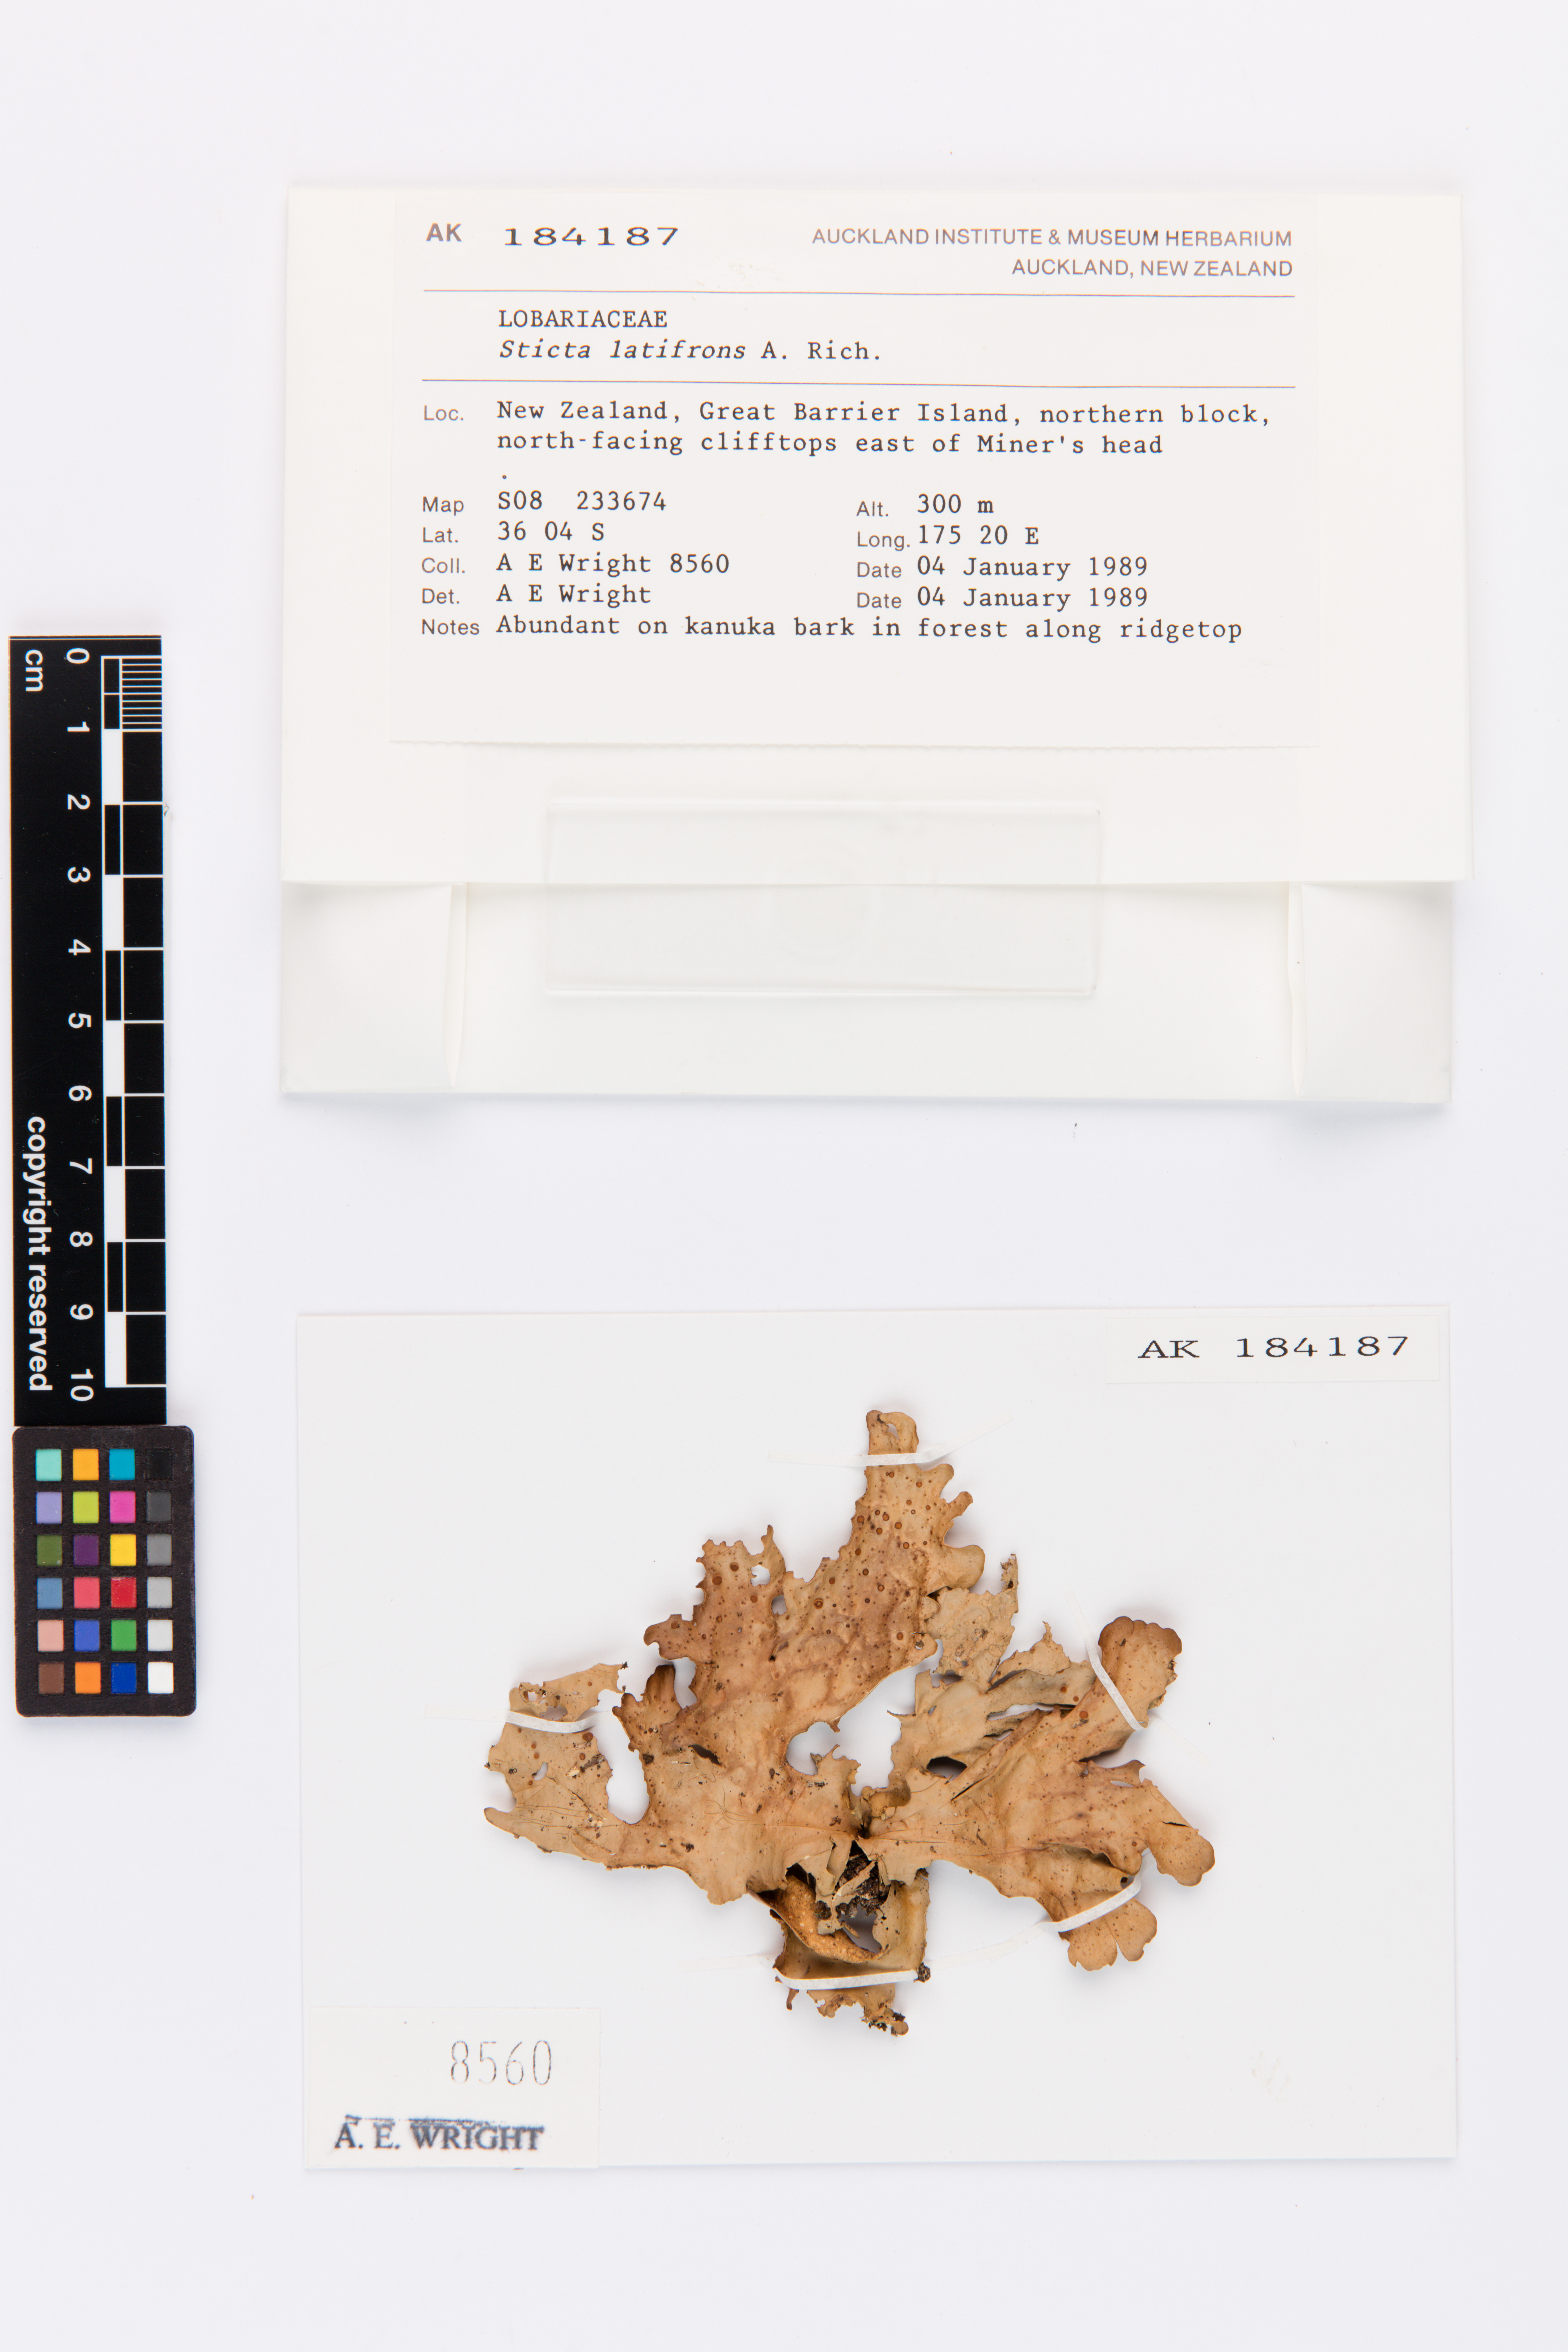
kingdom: Fungi
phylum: Ascomycota
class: Lecanoromycetes
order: Peltigerales
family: Lobariaceae
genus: Sticta
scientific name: Sticta latifrons
